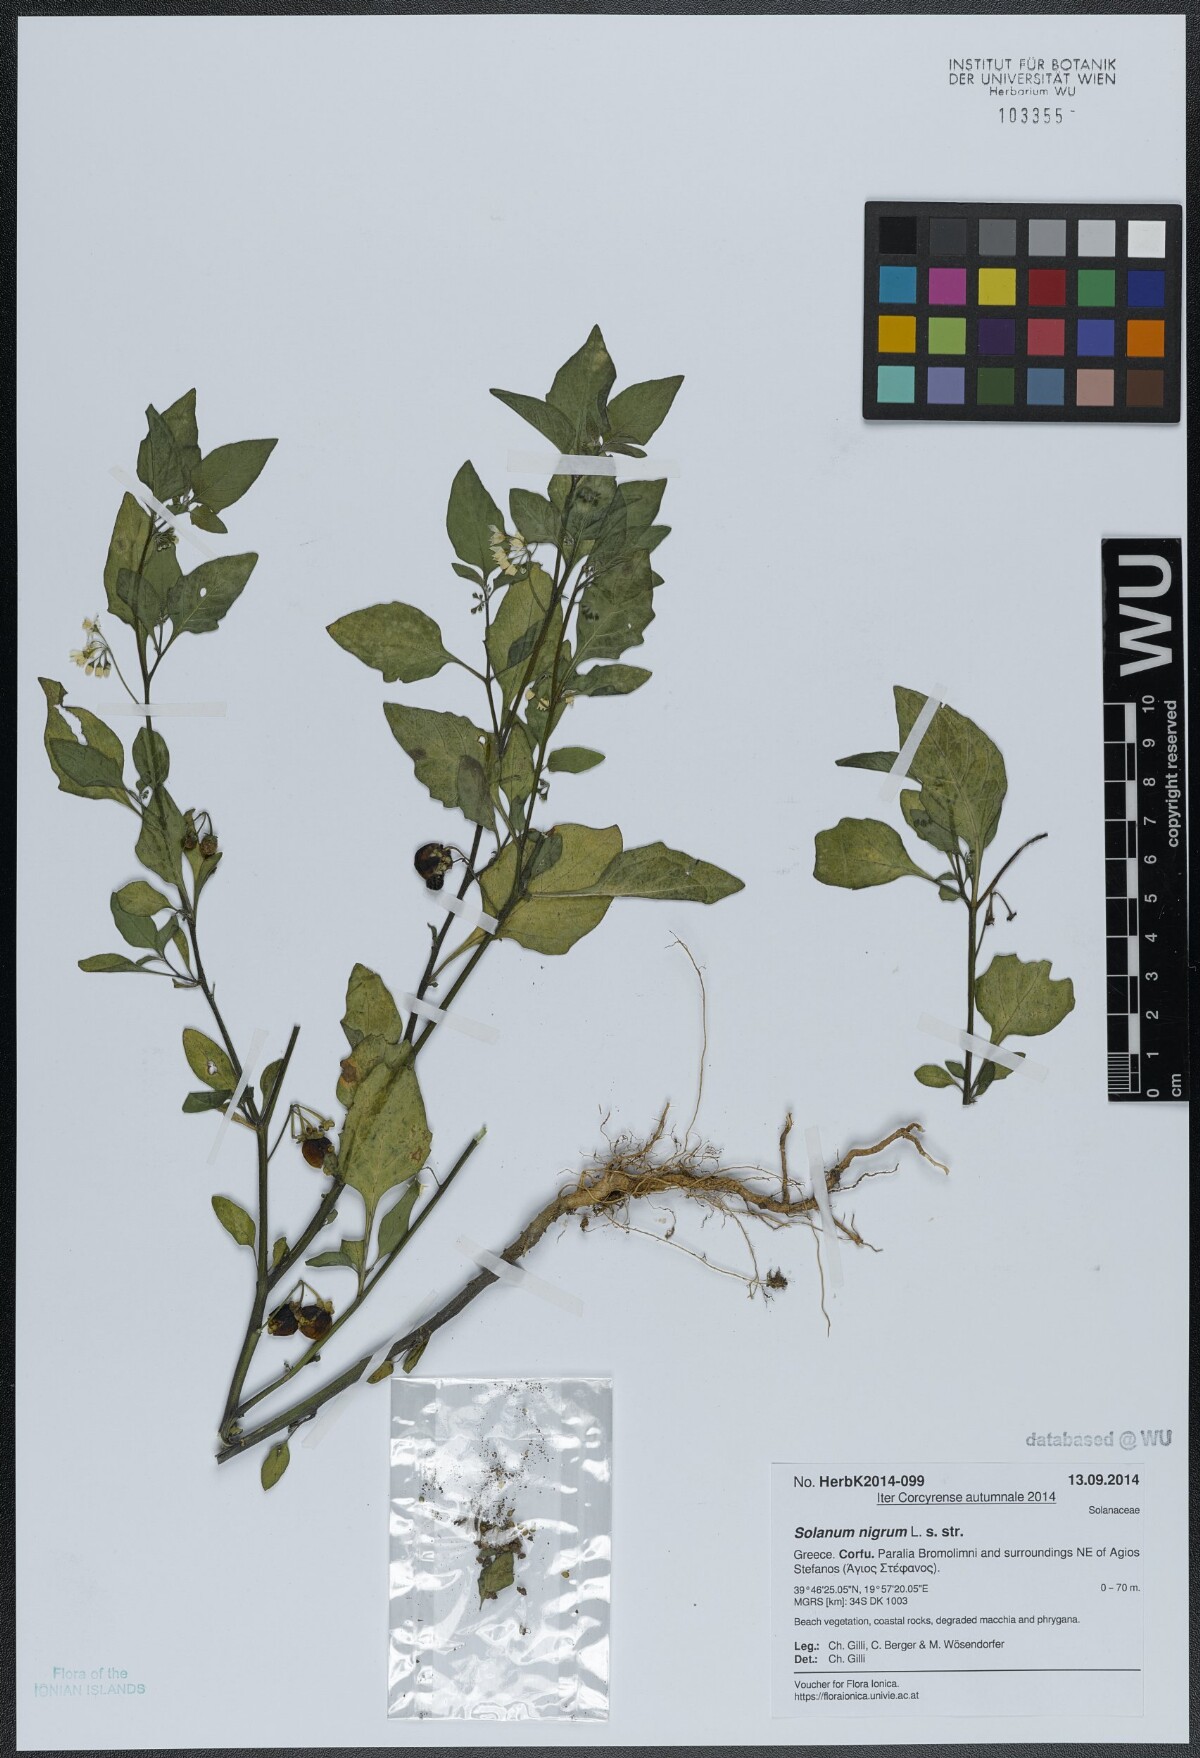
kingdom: Plantae
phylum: Tracheophyta
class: Magnoliopsida
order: Solanales
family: Solanaceae
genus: Solanum
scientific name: Solanum nigrum
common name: Black nightshade
